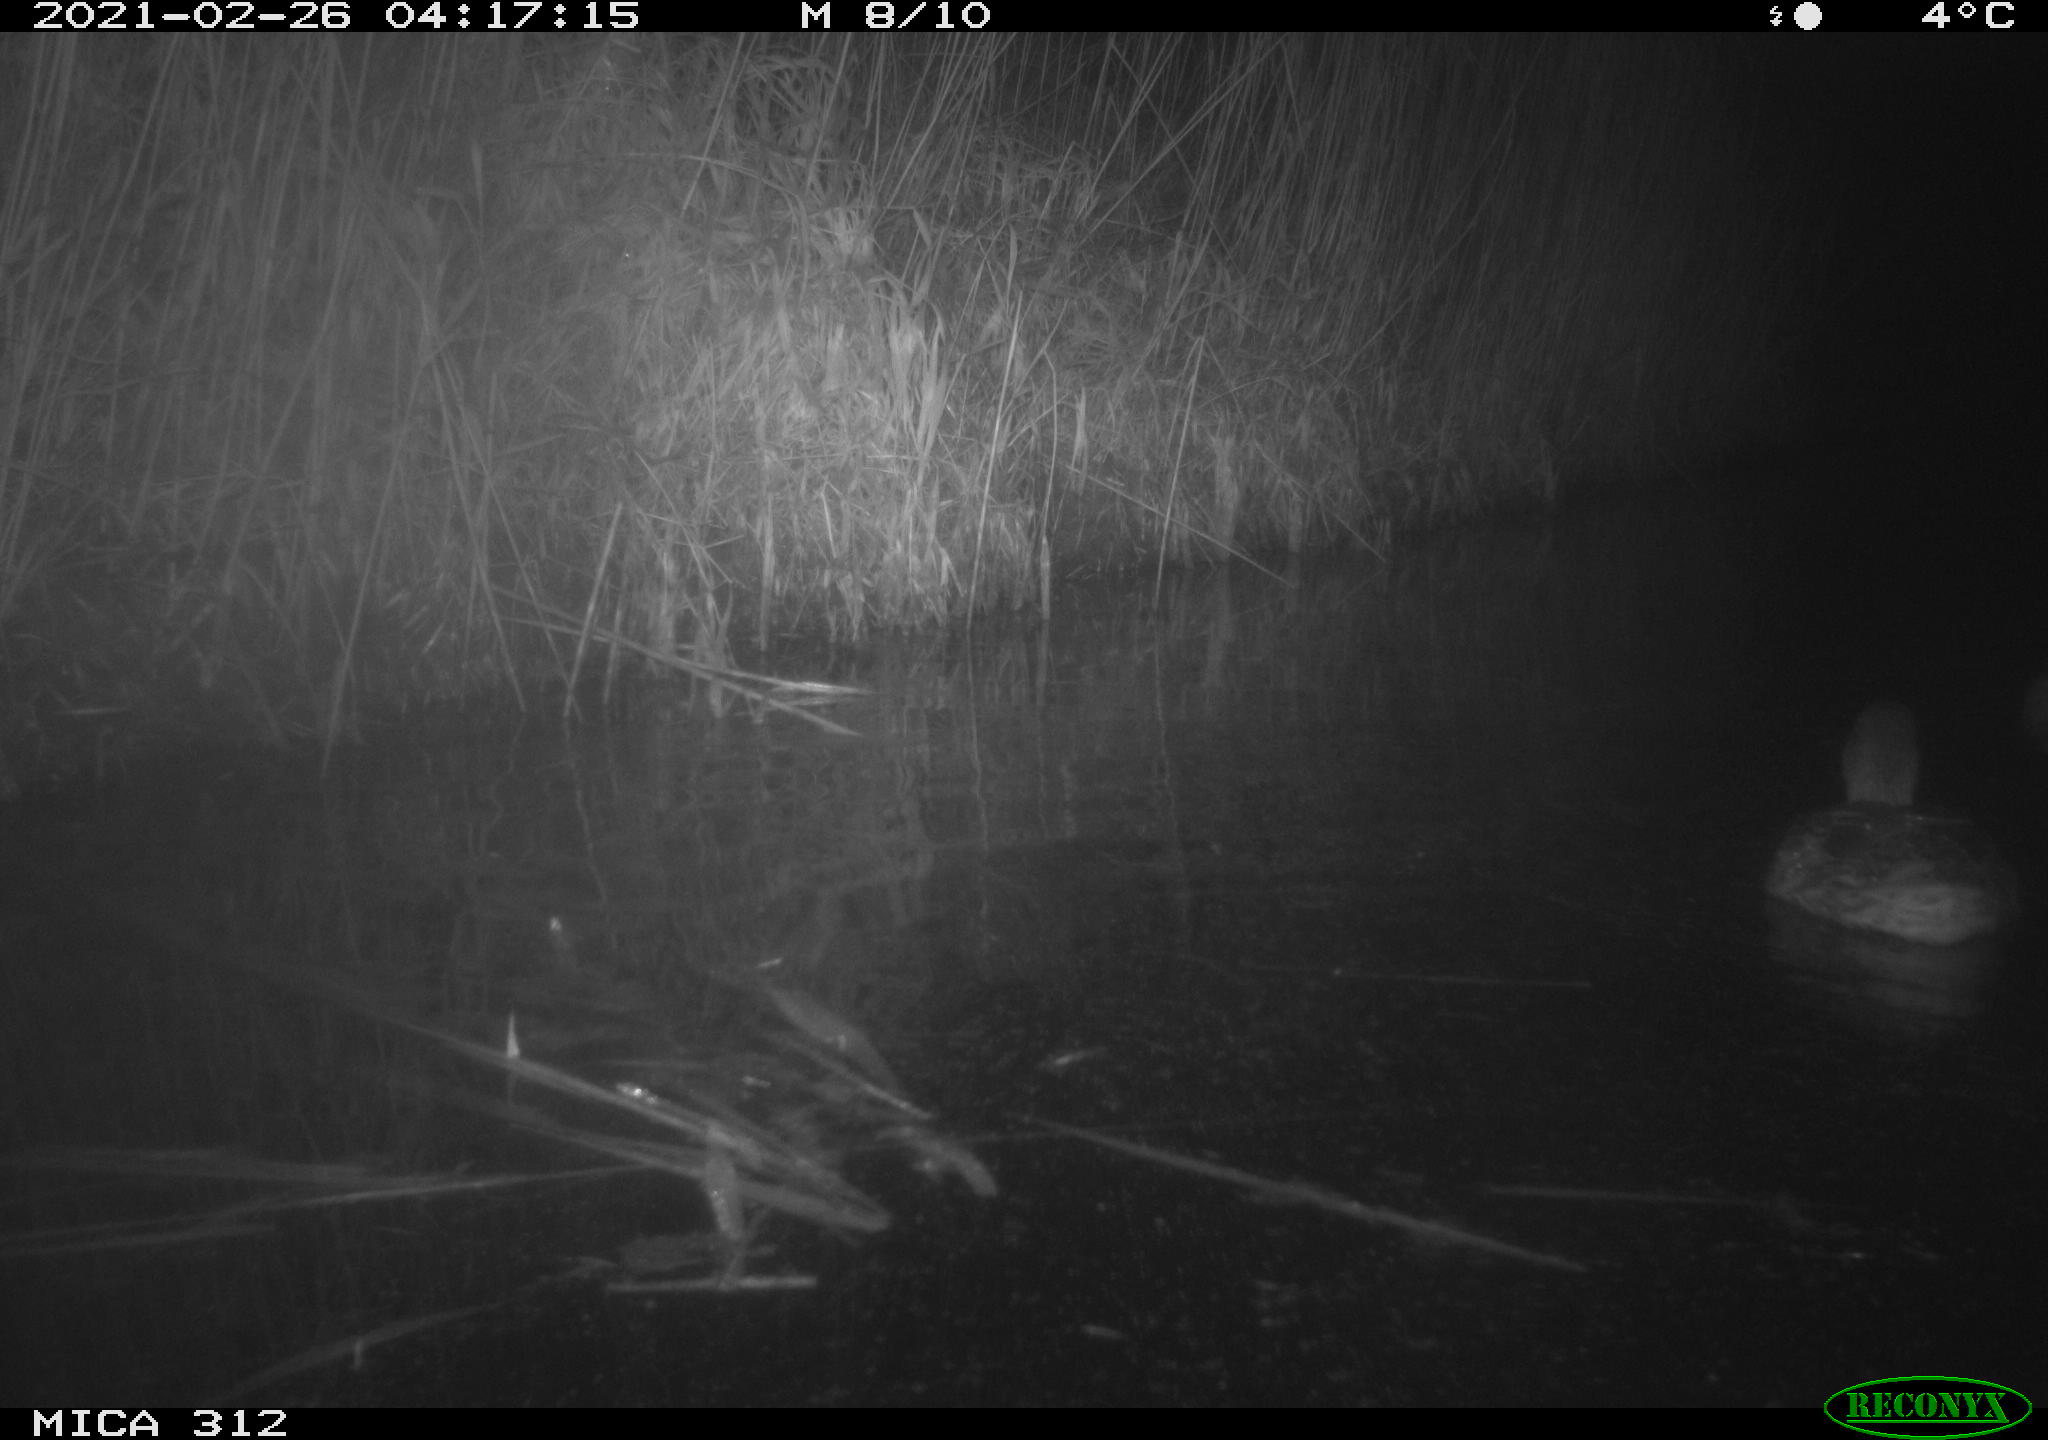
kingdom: Animalia
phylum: Chordata
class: Aves
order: Anseriformes
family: Anatidae
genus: Anas
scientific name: Anas platyrhynchos
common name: Mallard
